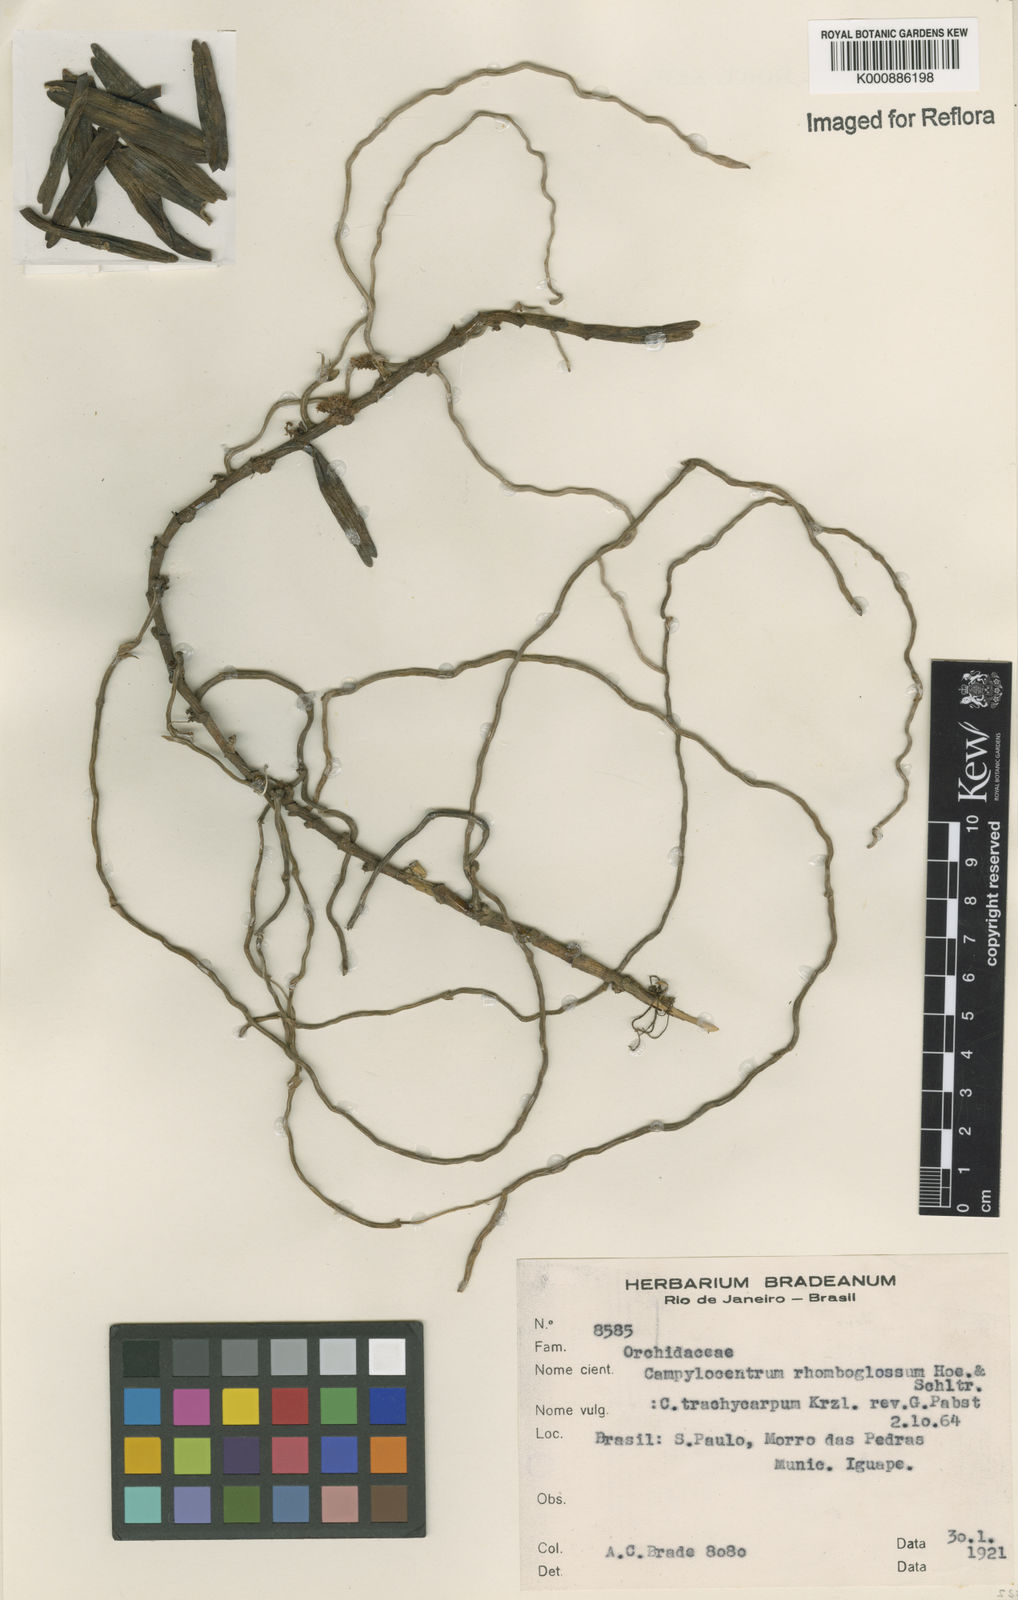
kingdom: Plantae
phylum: Tracheophyta
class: Liliopsida
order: Asparagales
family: Orchidaceae
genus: Campylocentrum
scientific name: Campylocentrum aromaticum
